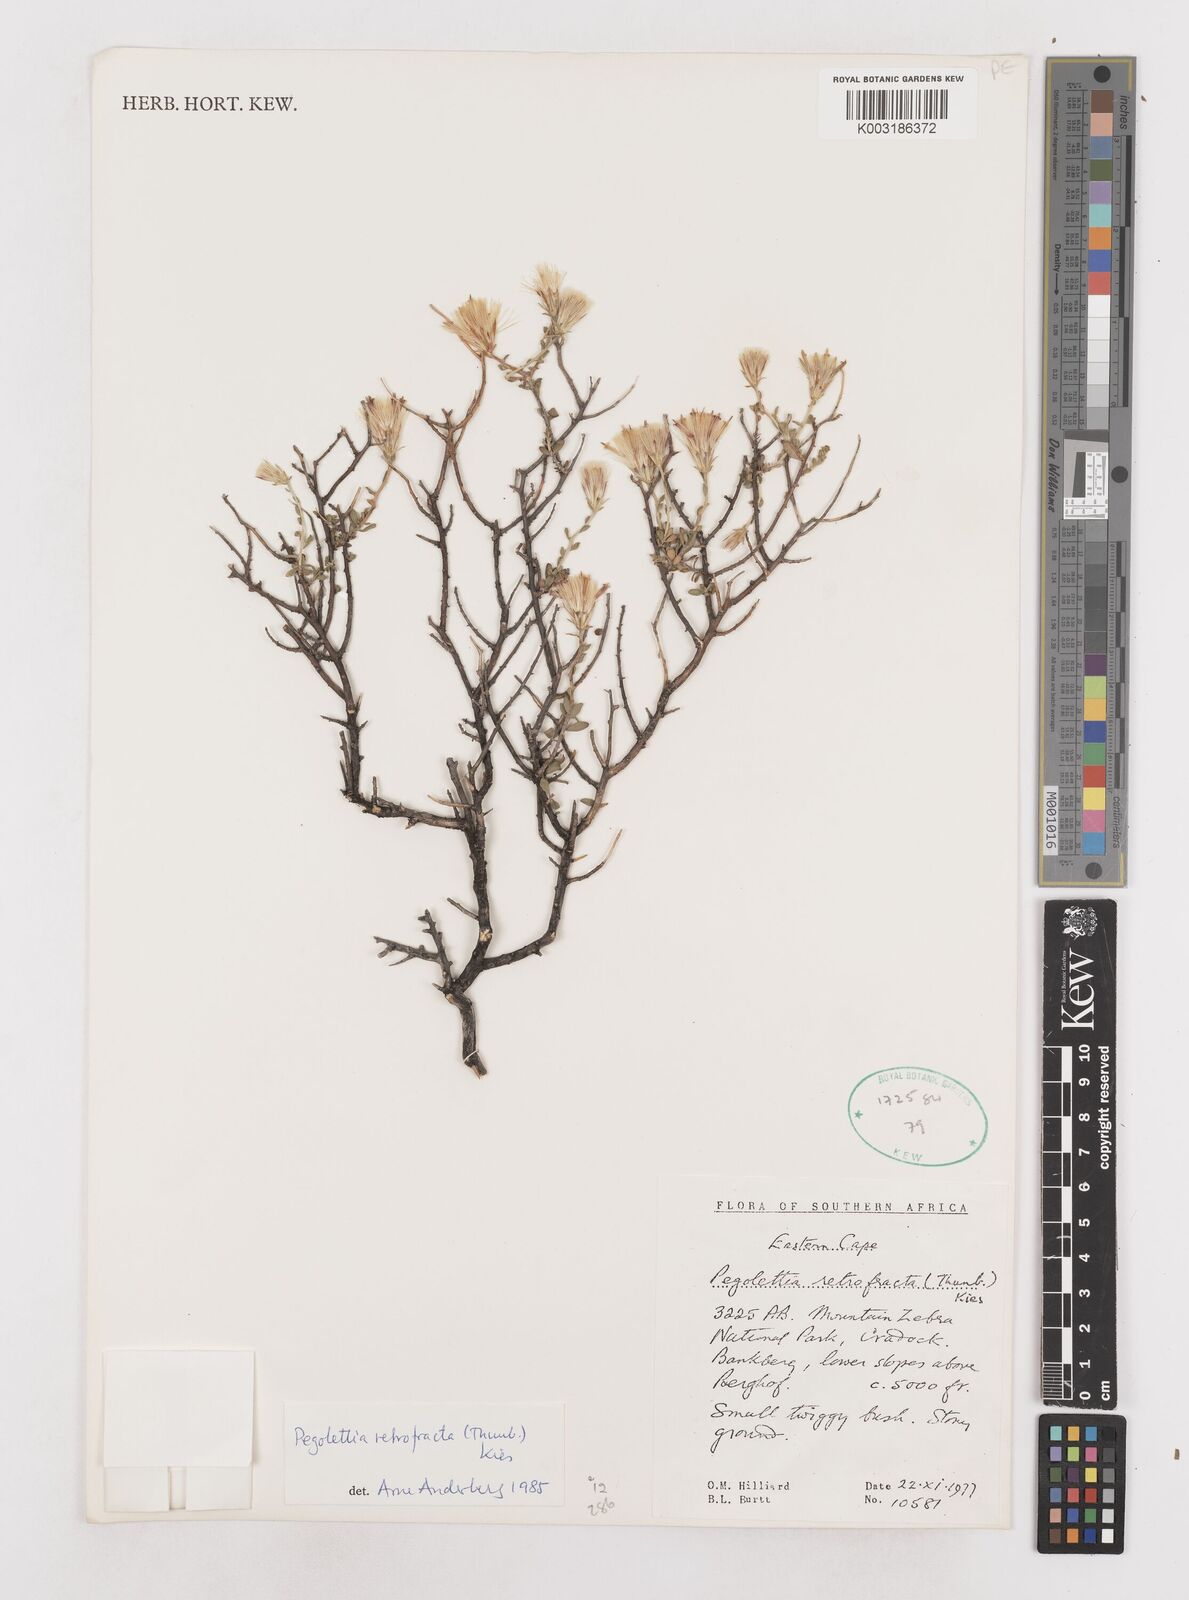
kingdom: Plantae
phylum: Tracheophyta
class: Magnoliopsida
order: Asterales
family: Asteraceae
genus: Pegolettia
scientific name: Pegolettia retrofracta
